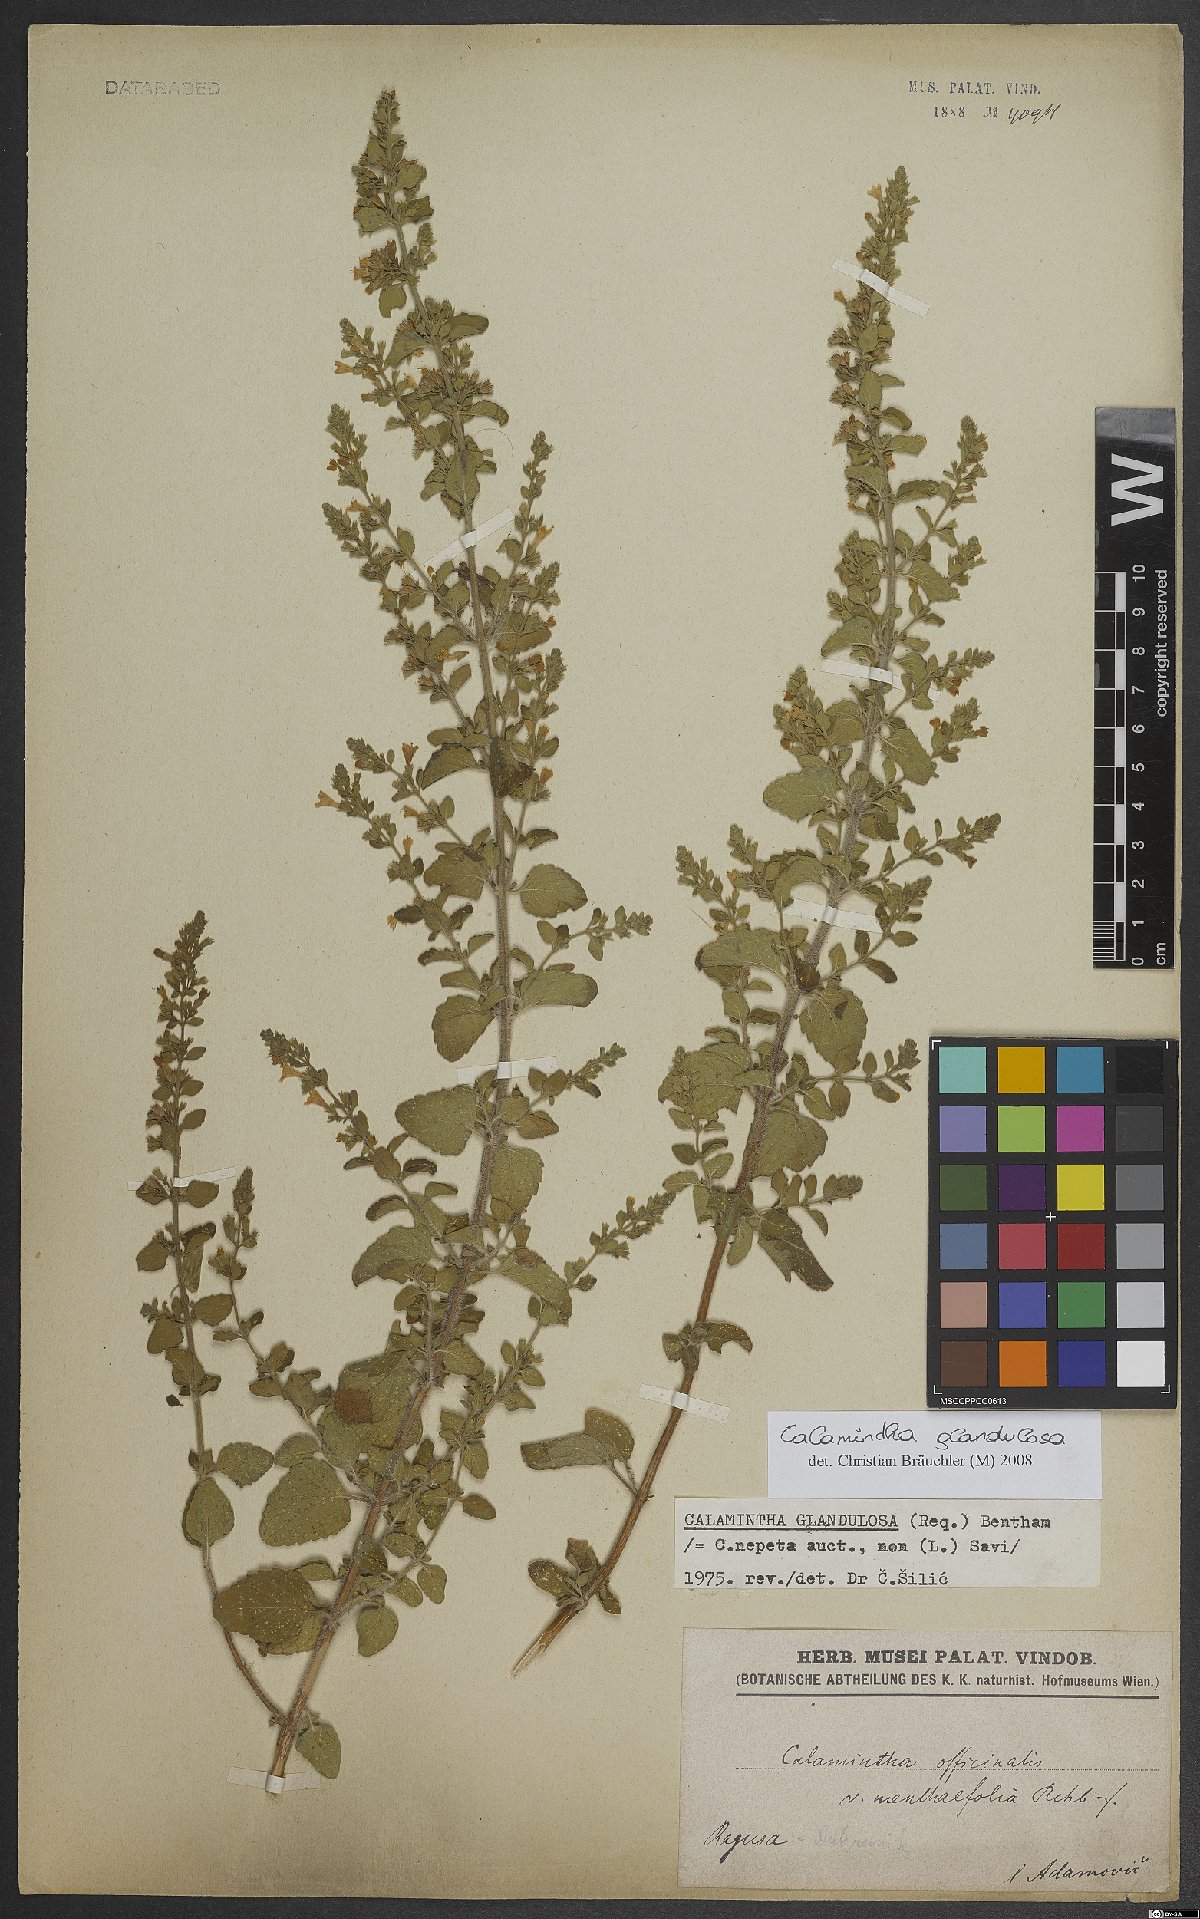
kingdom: Plantae
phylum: Tracheophyta
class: Magnoliopsida
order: Lamiales
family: Lamiaceae
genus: Clinopodium
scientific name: Clinopodium nepeta
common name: Lesser calamint
